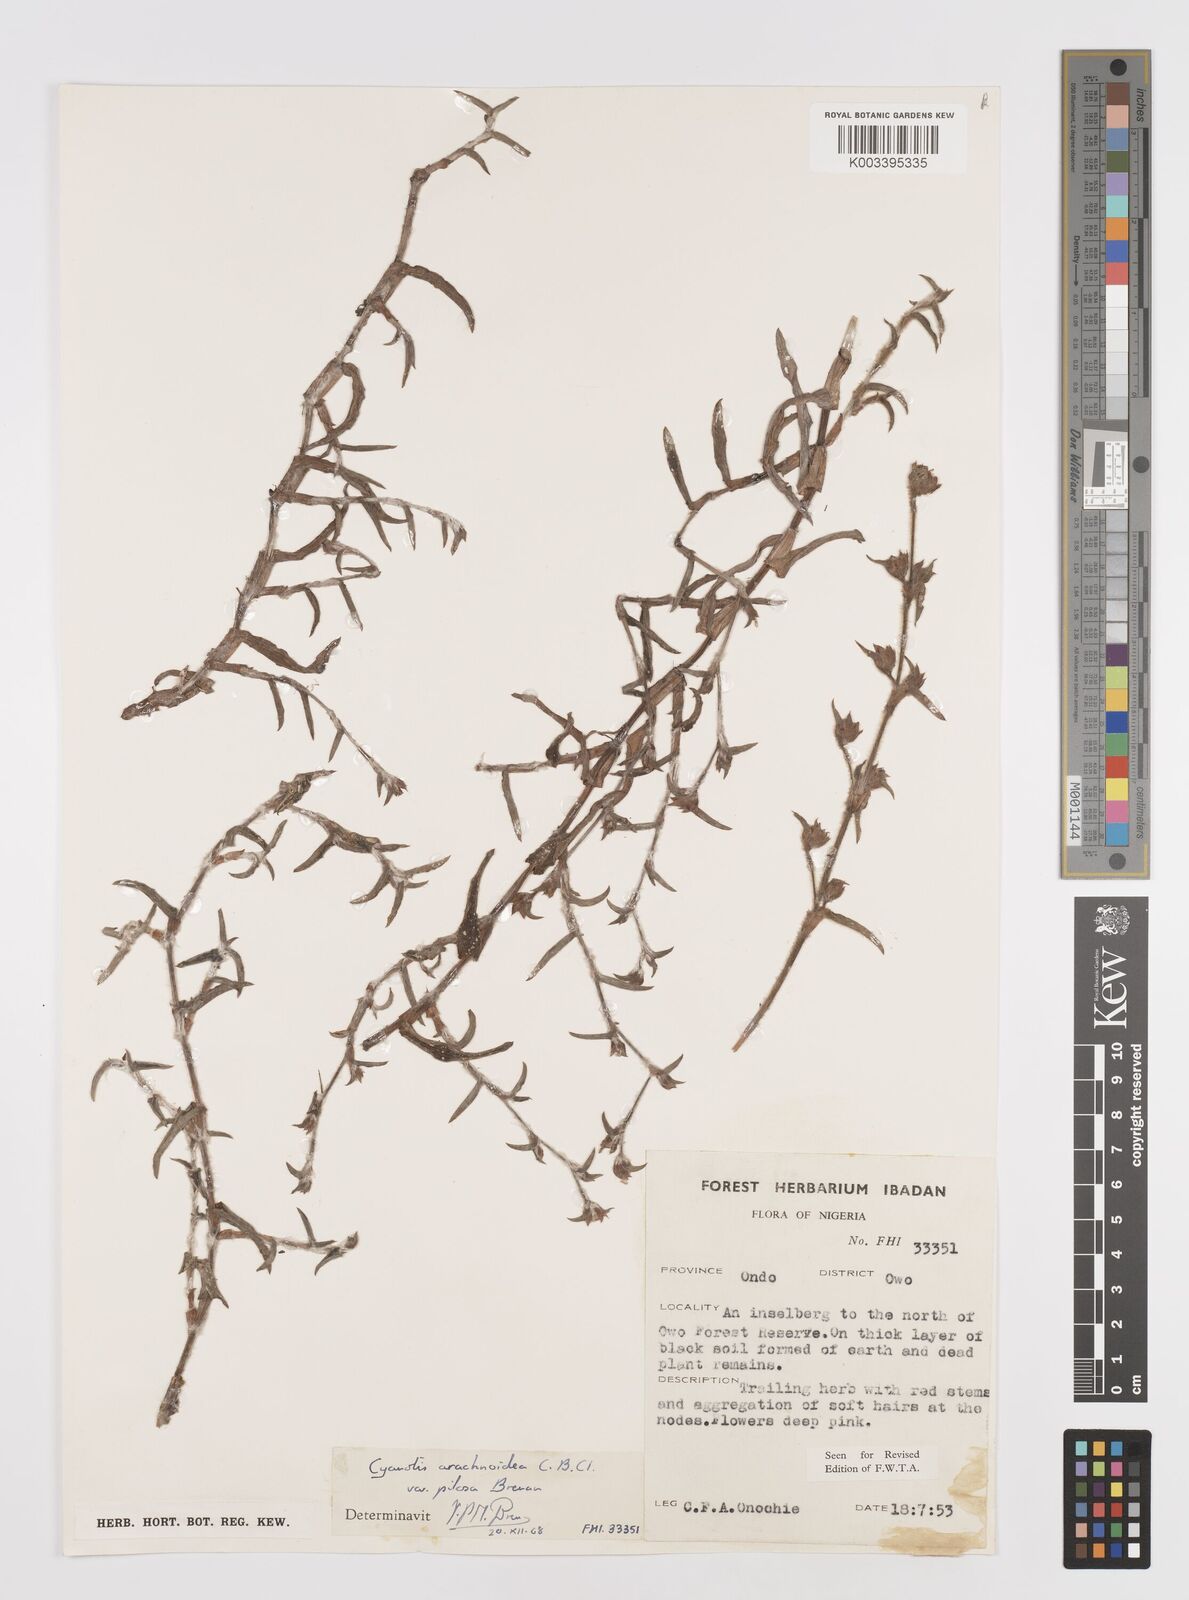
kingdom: Plantae
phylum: Tracheophyta
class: Liliopsida
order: Commelinales
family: Commelinaceae
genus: Cyanotis
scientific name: Cyanotis arachnoidea
